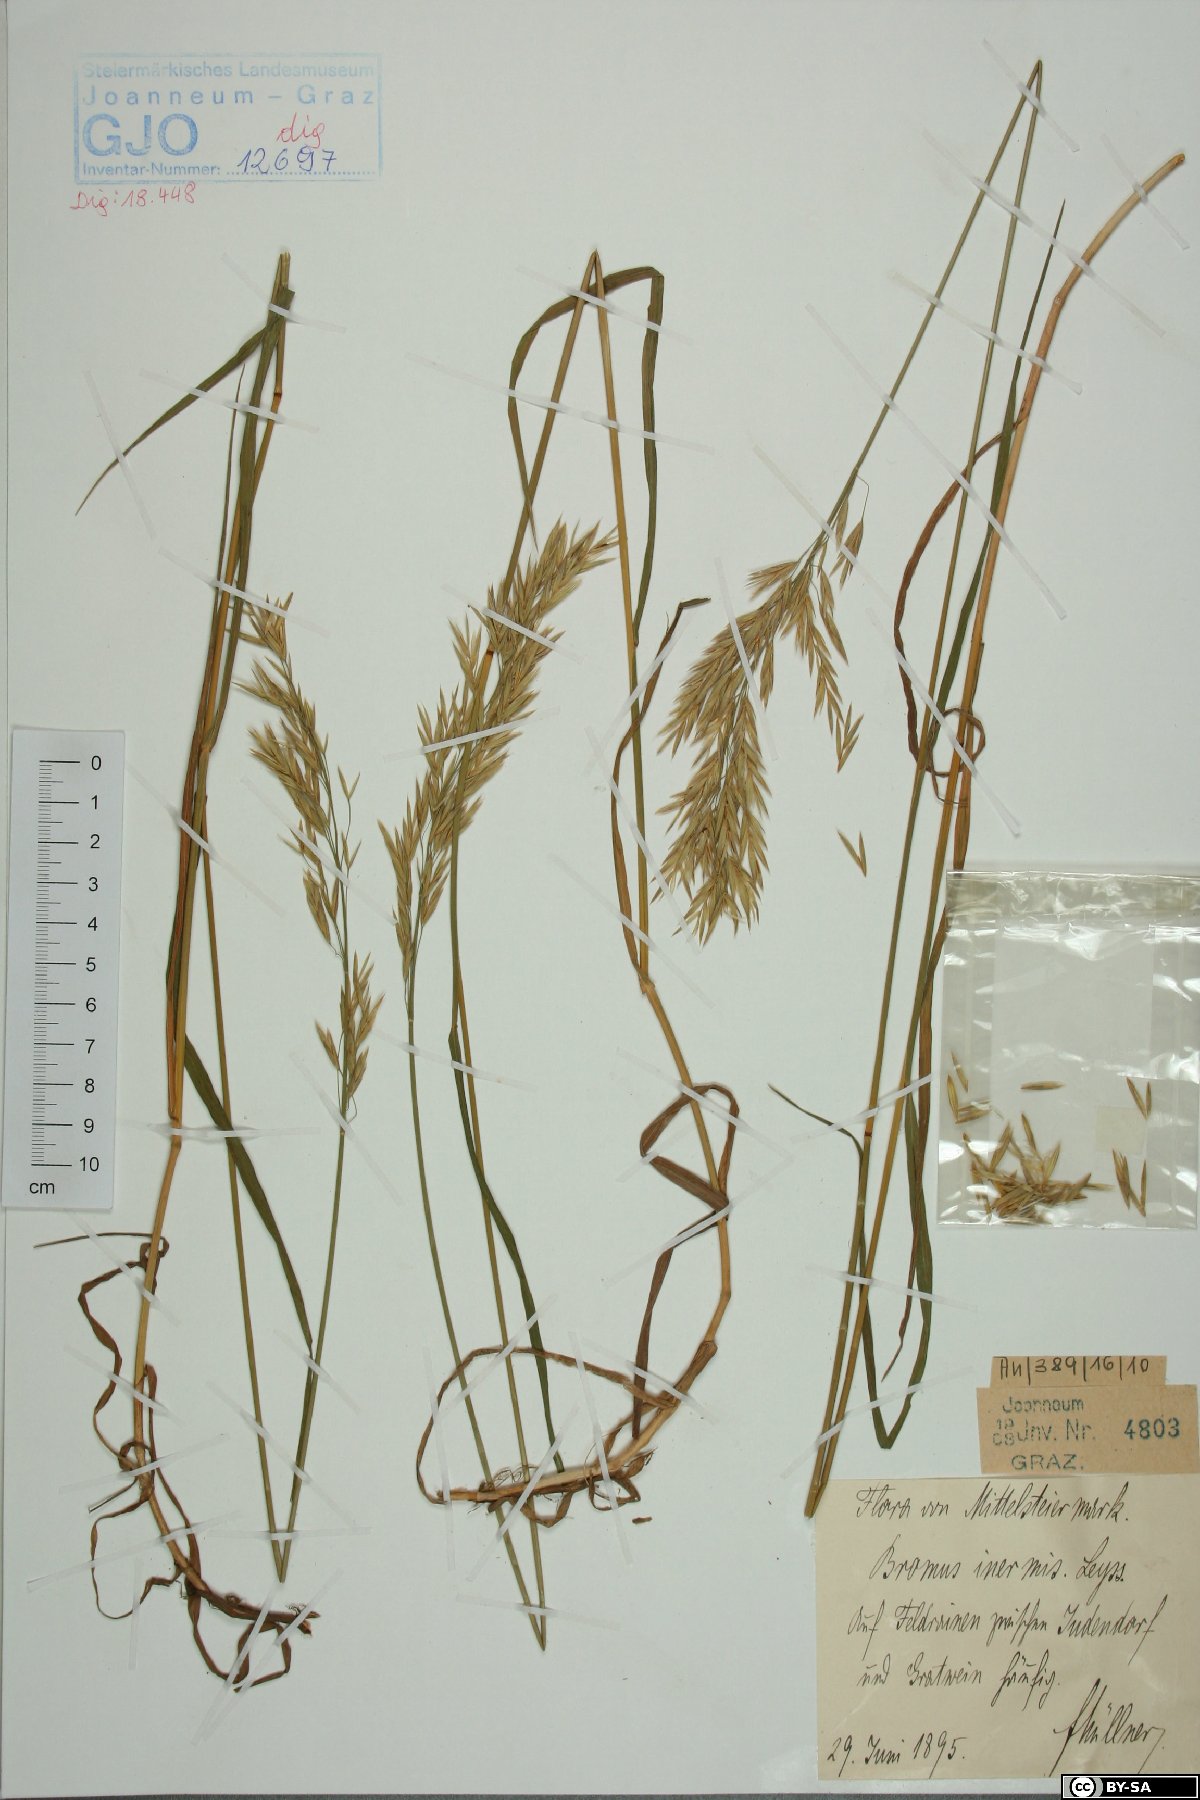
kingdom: Plantae
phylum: Tracheophyta
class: Liliopsida
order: Poales
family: Poaceae
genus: Bromus
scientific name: Bromus inermis
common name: Smooth brome
